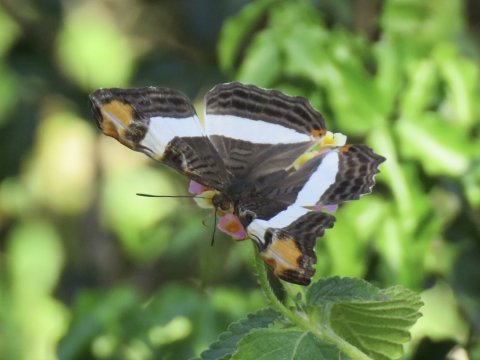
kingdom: Animalia
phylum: Arthropoda
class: Insecta
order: Lepidoptera
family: Nymphalidae
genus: Limenitis
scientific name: Limenitis fessonia
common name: Band-celled Sister
